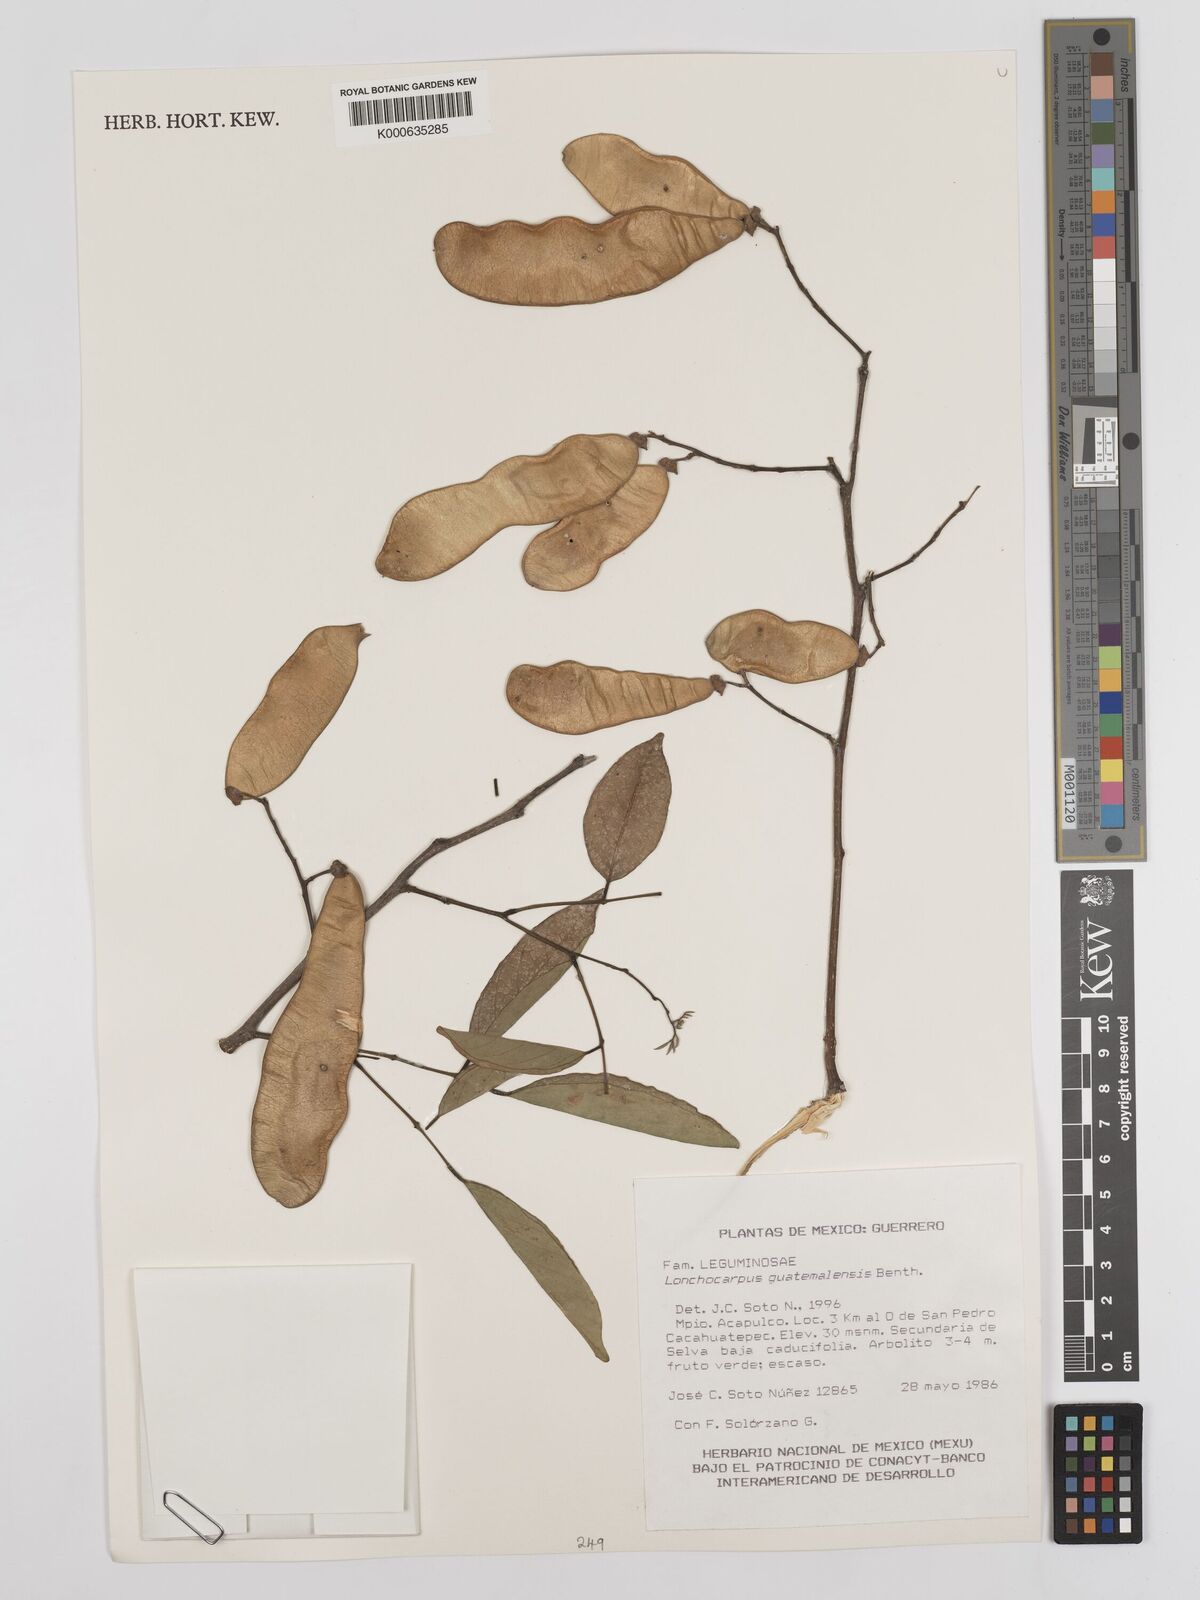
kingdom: Plantae
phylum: Tracheophyta
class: Magnoliopsida
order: Fabales
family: Fabaceae
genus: Lonchocarpus
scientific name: Lonchocarpus guatemalensis
